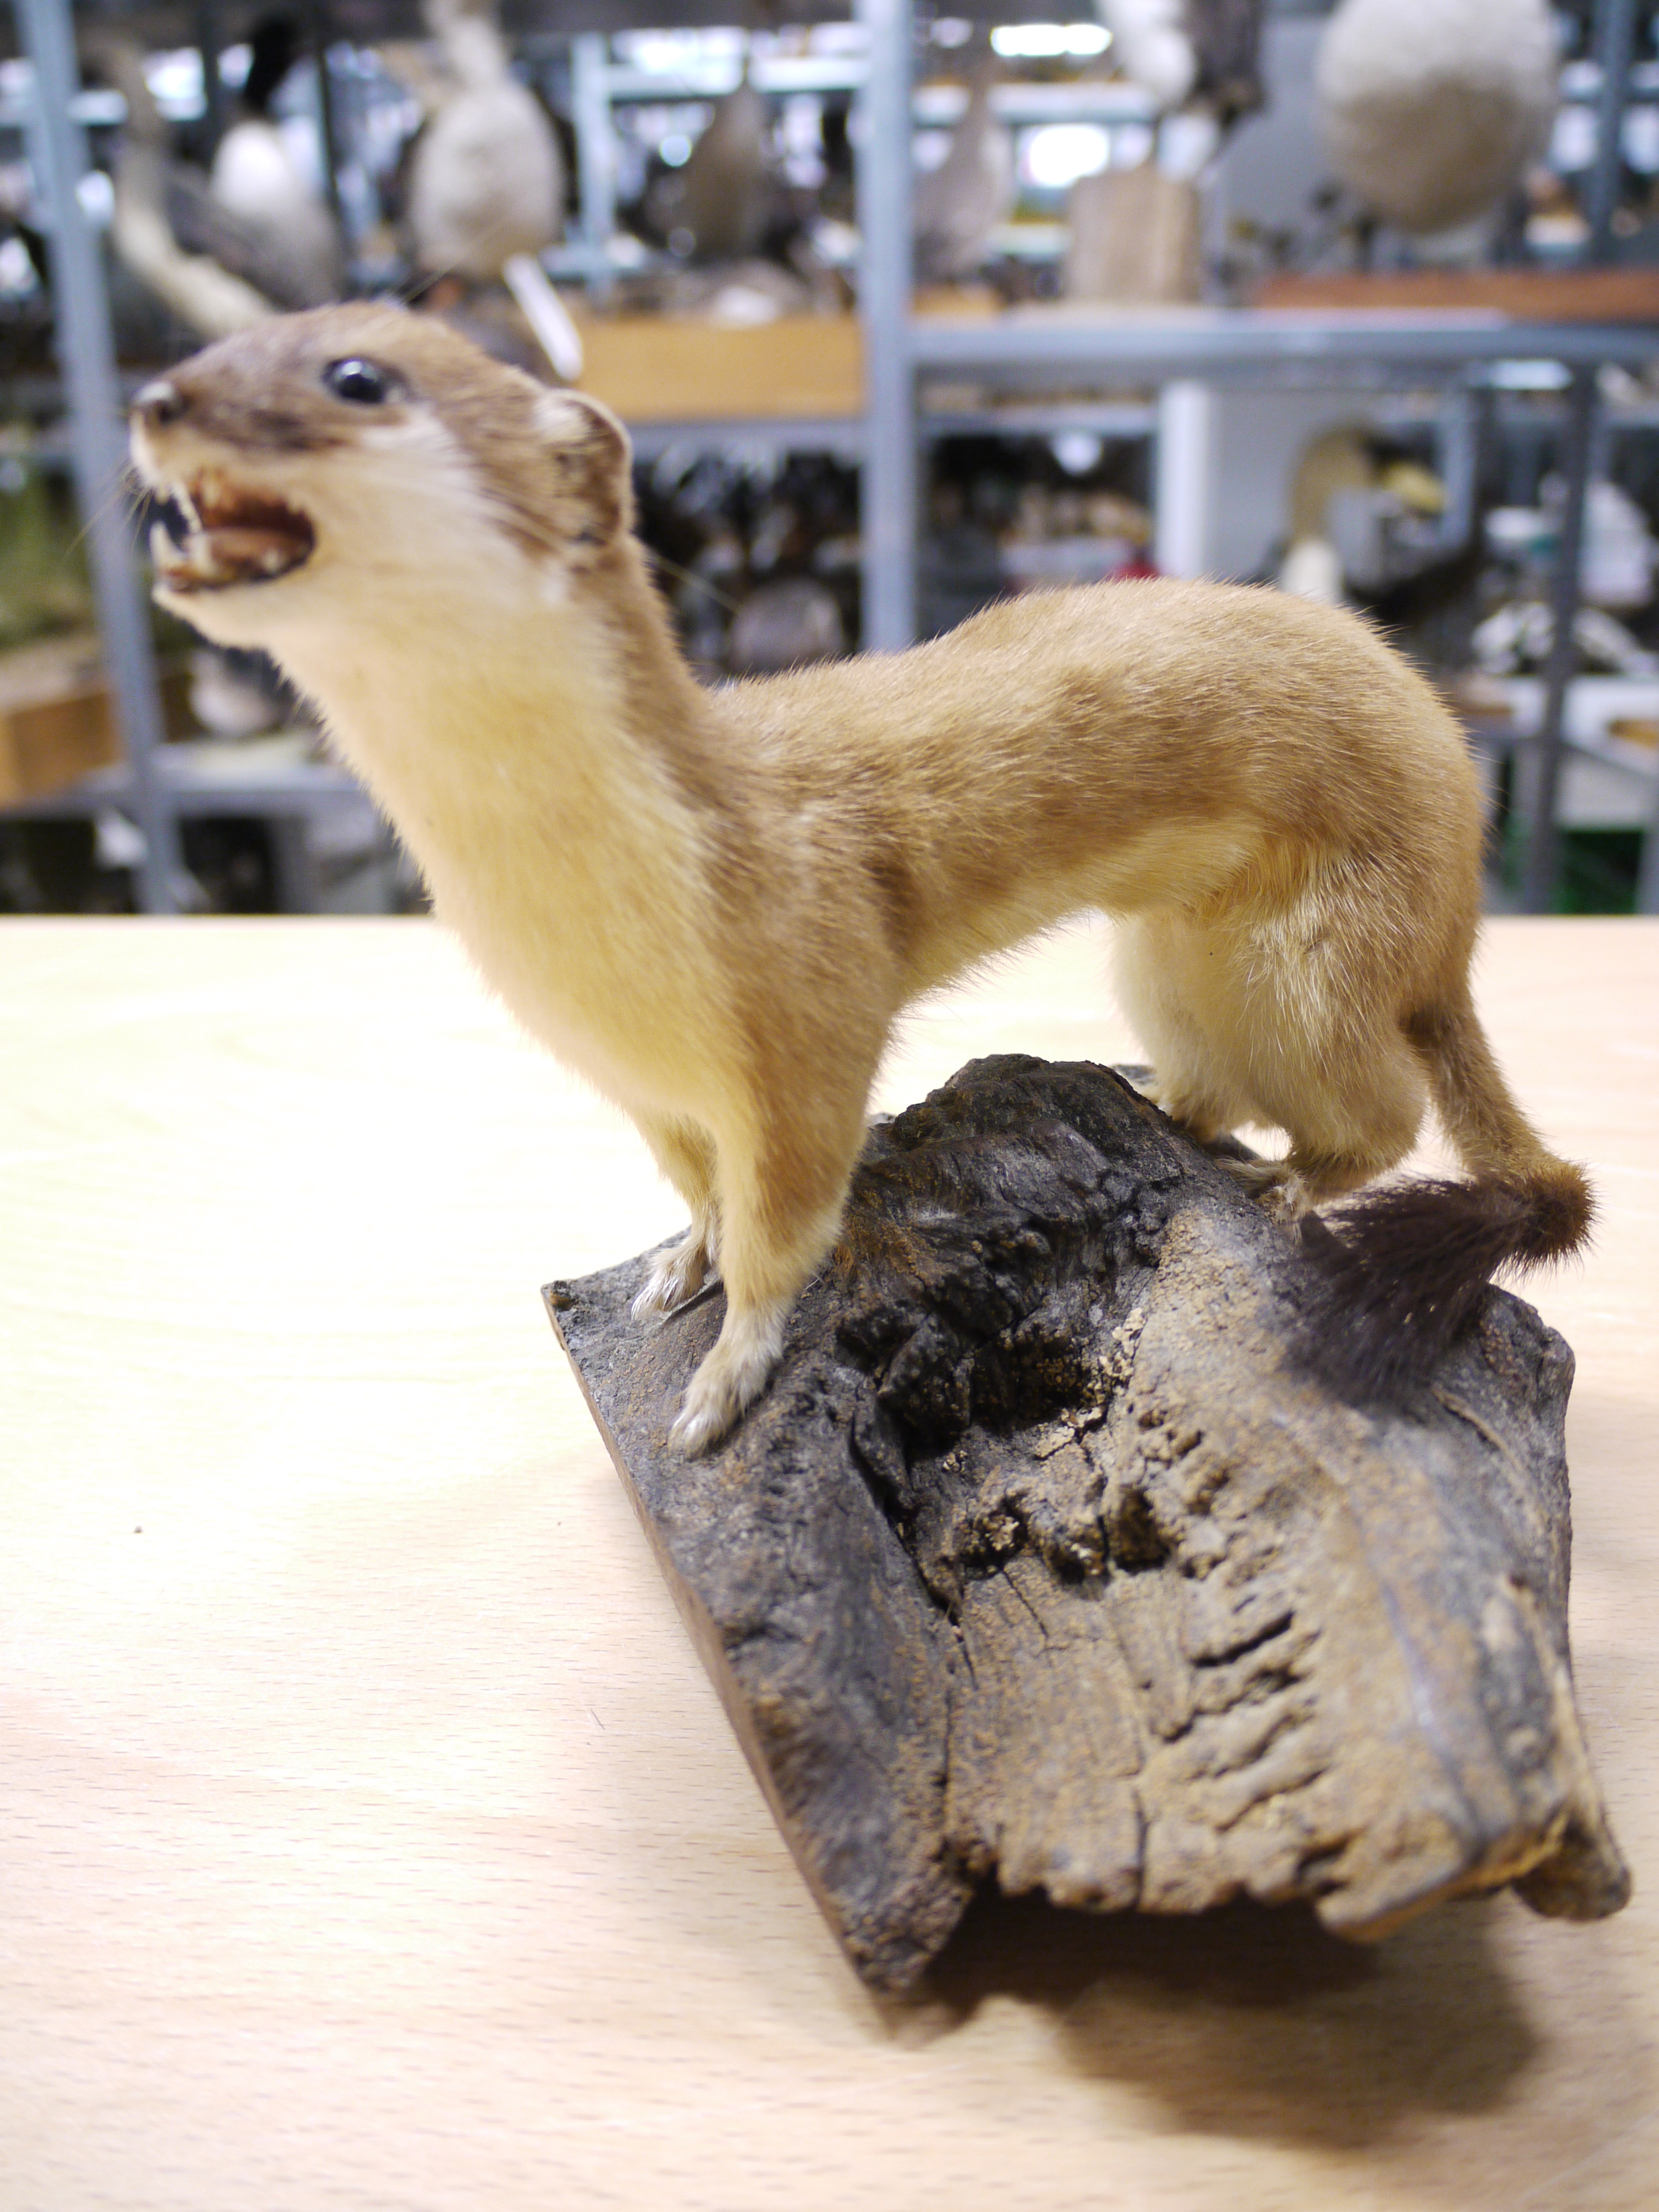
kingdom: Animalia
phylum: Chordata
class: Mammalia
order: Carnivora
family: Mustelidae
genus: Mustela
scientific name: Mustela erminea
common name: Stoat
